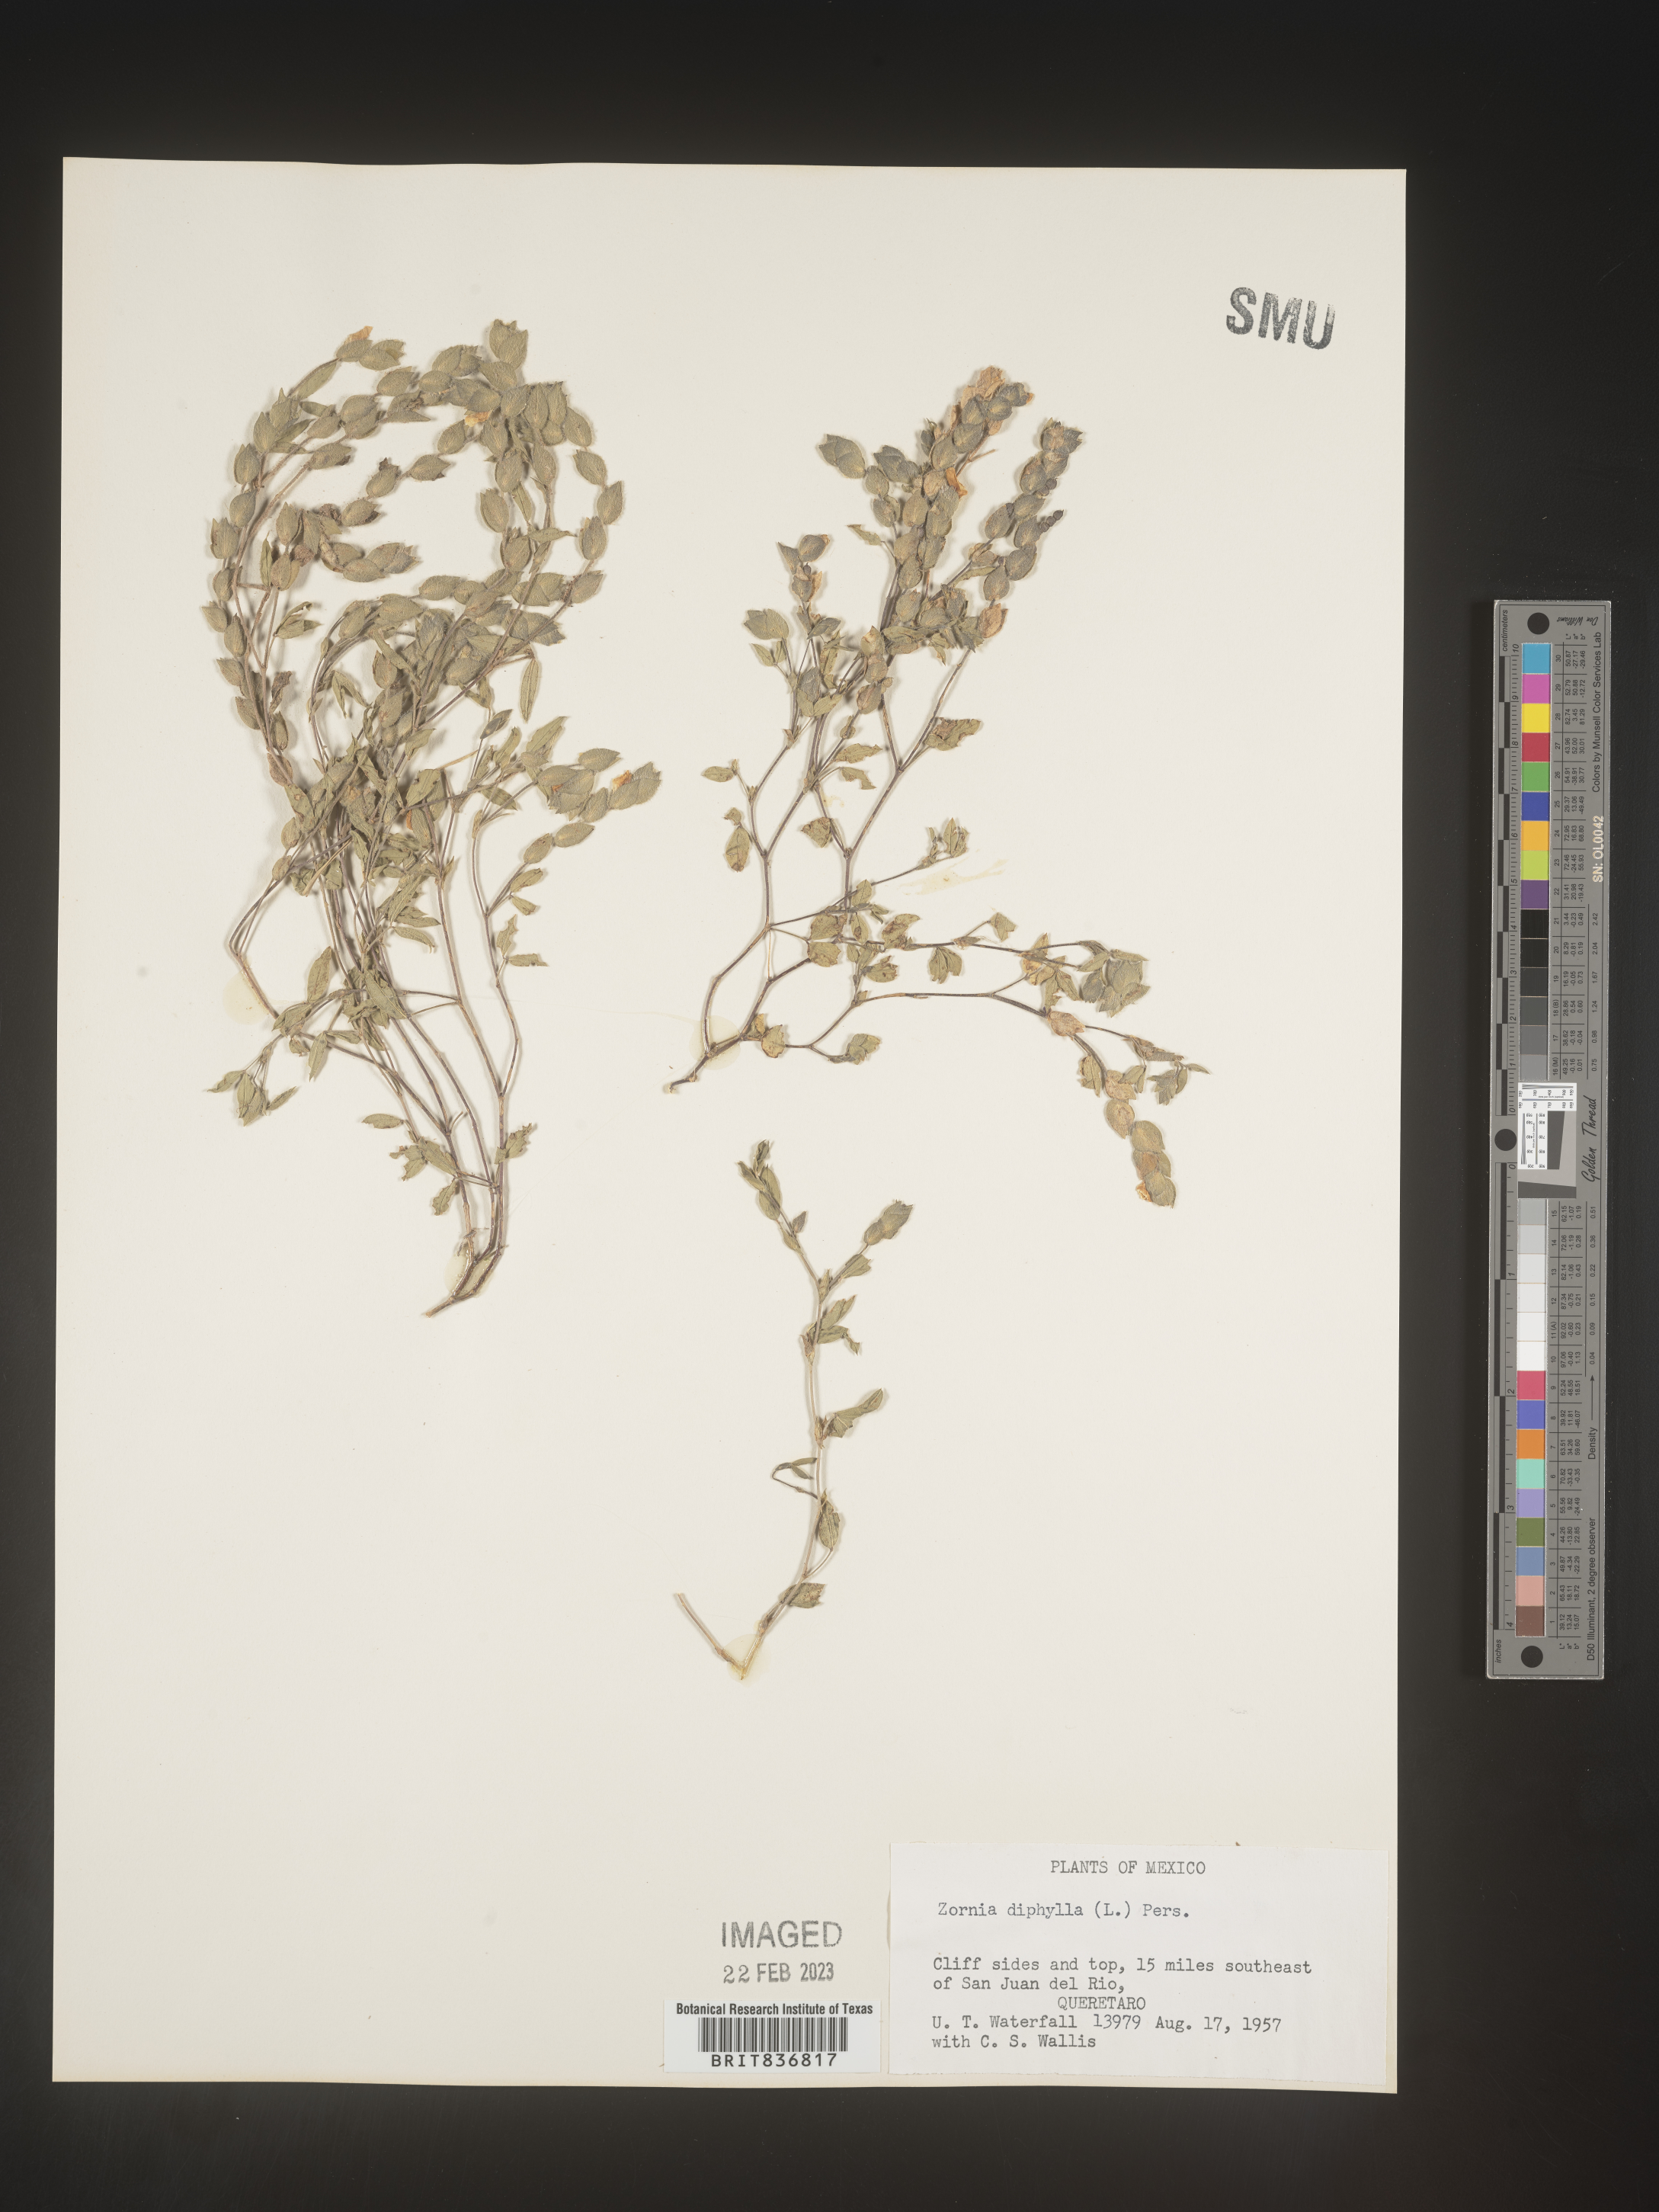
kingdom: Plantae
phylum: Tracheophyta
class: Magnoliopsida
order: Fabales
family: Fabaceae
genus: Zornia
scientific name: Zornia
